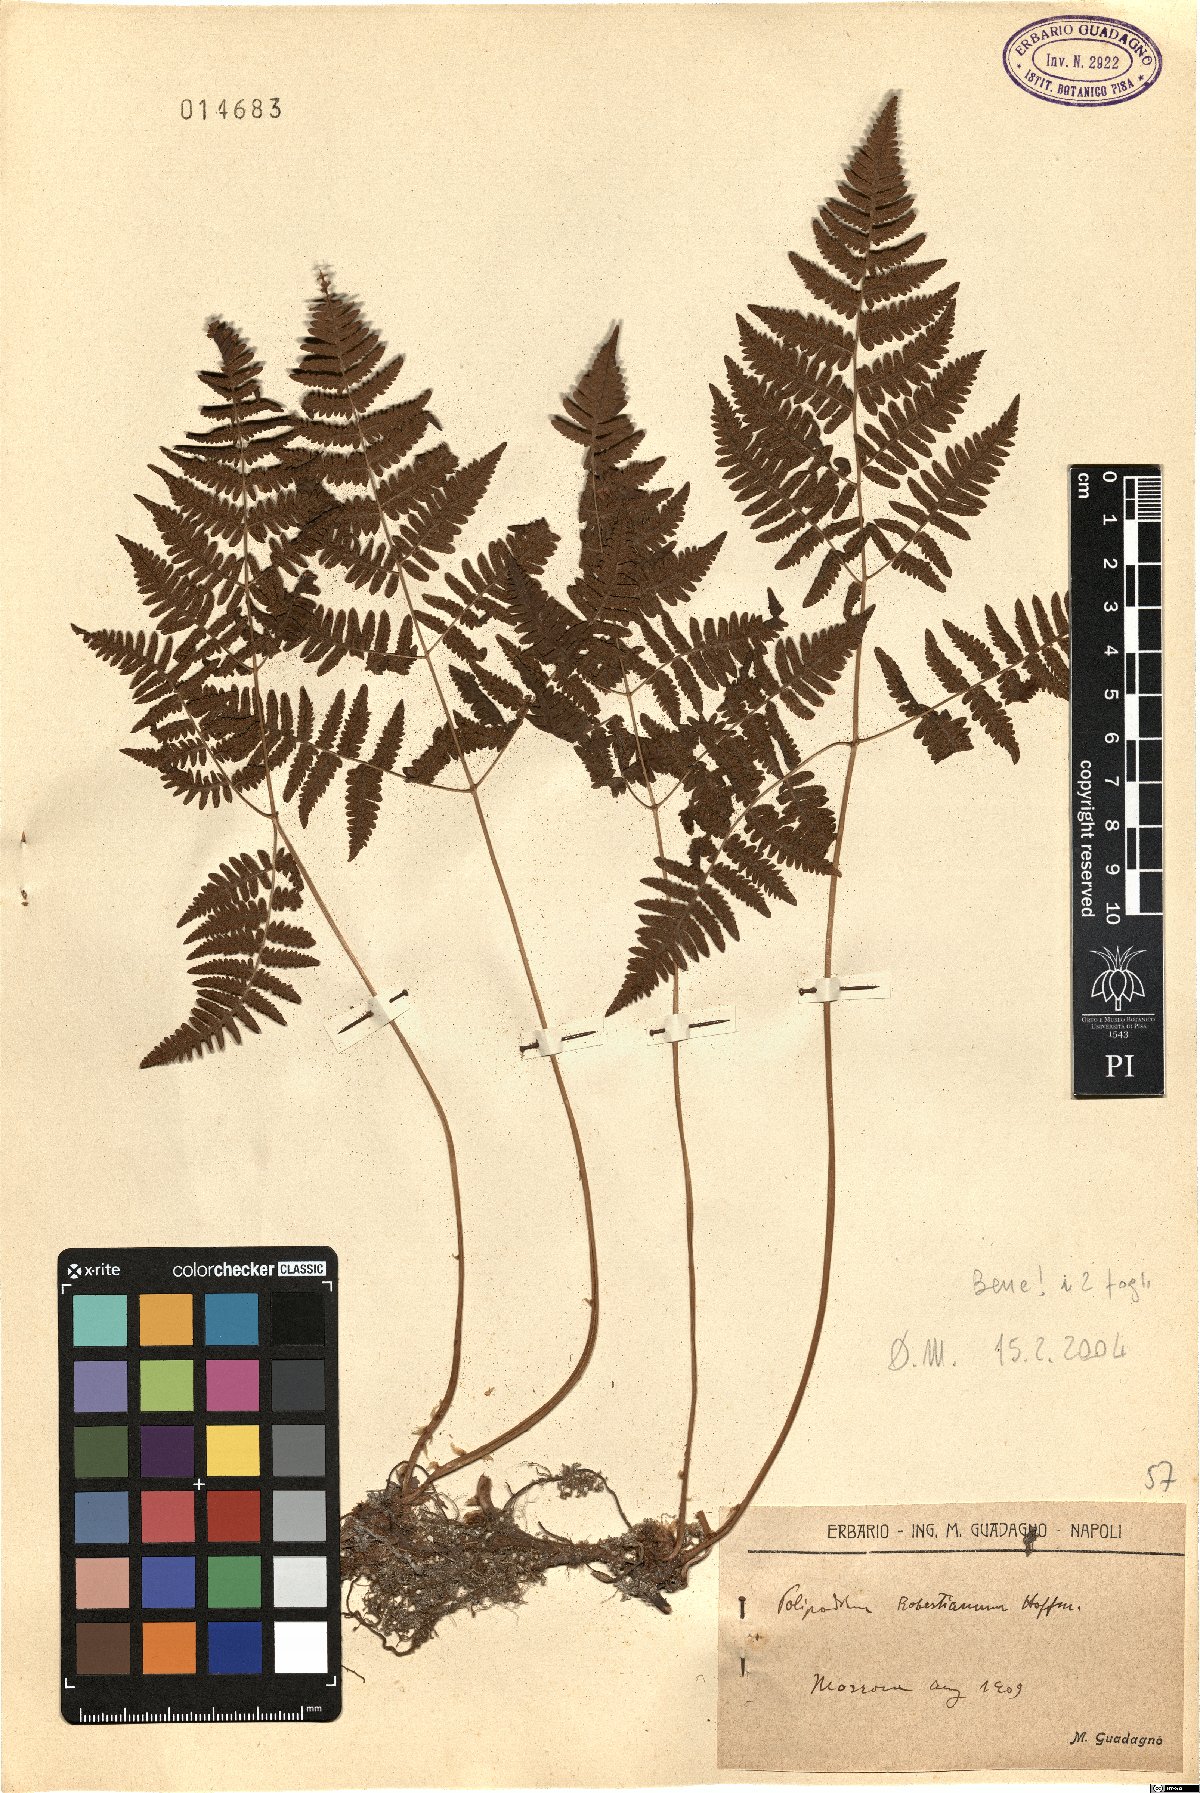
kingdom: Plantae
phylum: Tracheophyta
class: Polypodiopsida
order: Polypodiales
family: Cystopteridaceae
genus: Gymnocarpium
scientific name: Gymnocarpium robertianum
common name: Limestone fern
